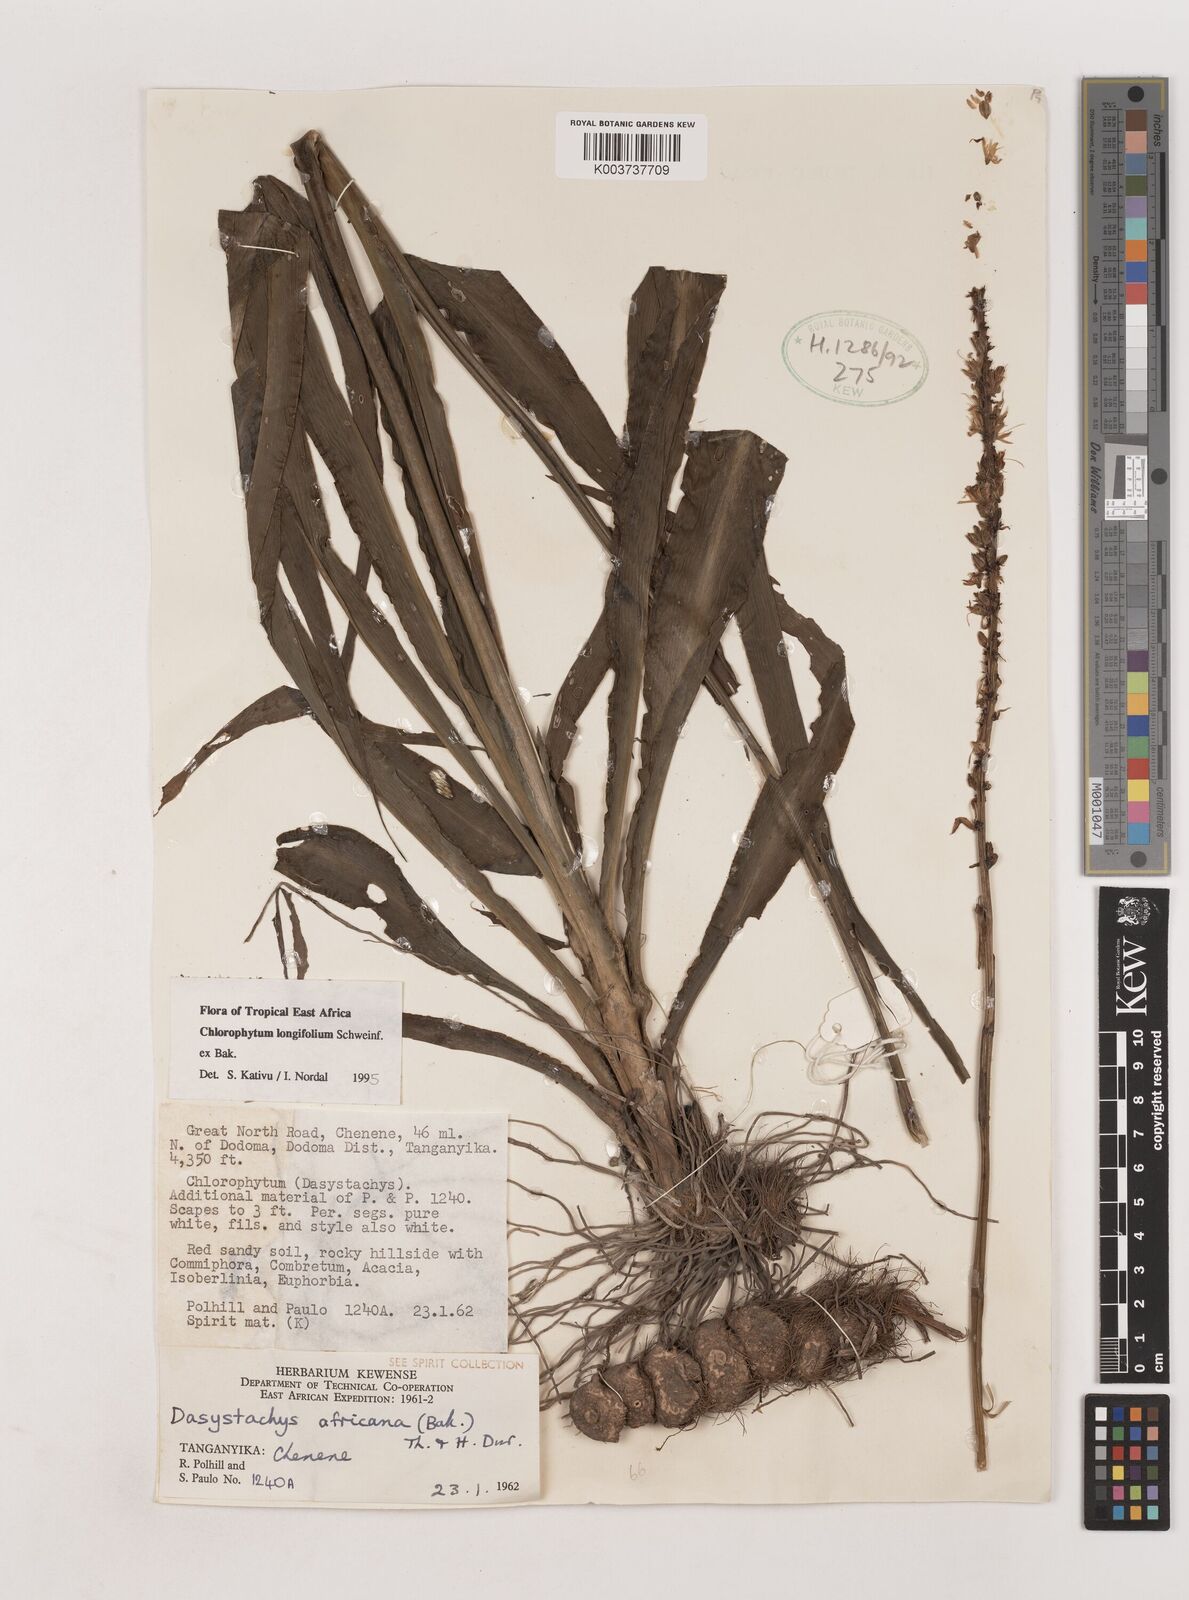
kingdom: Plantae
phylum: Tracheophyta
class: Liliopsida
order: Asparagales
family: Asparagaceae
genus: Chlorophytum
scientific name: Chlorophytum longifolium
